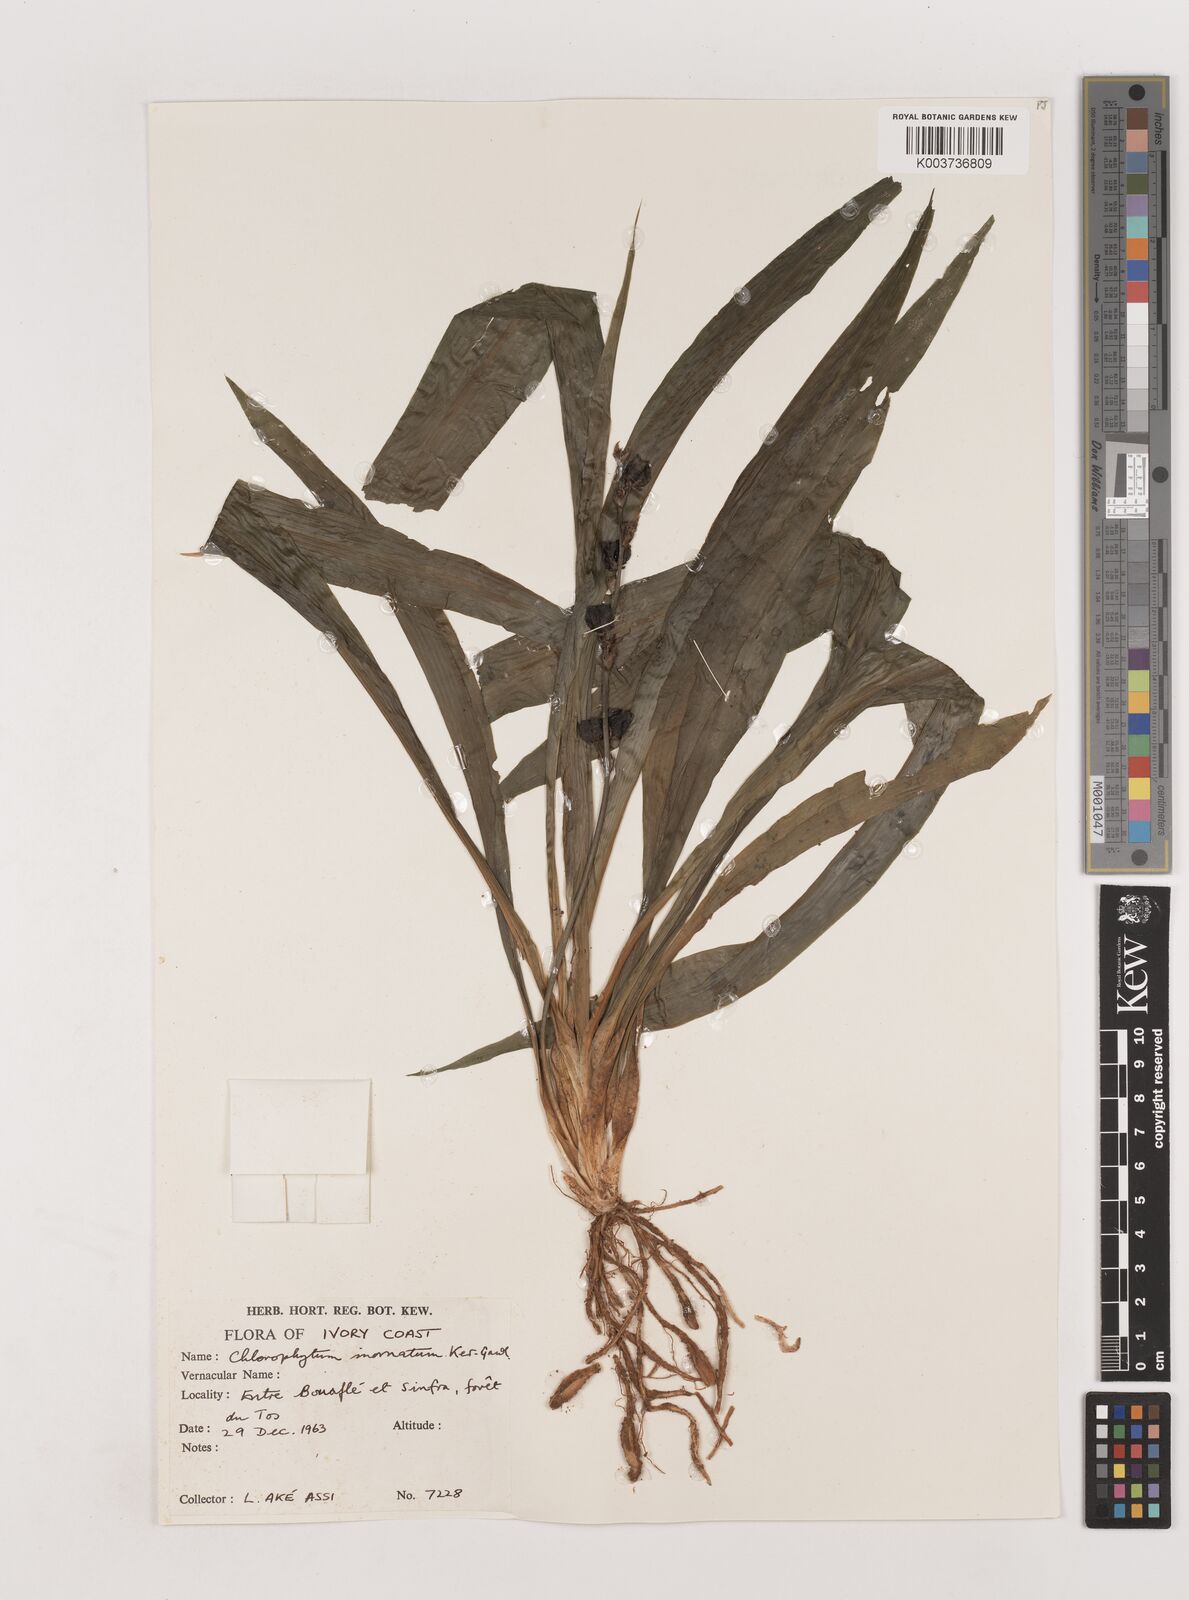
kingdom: Plantae
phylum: Tracheophyta
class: Liliopsida
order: Asparagales
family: Asparagaceae
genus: Chlorophytum
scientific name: Chlorophytum inornatum
